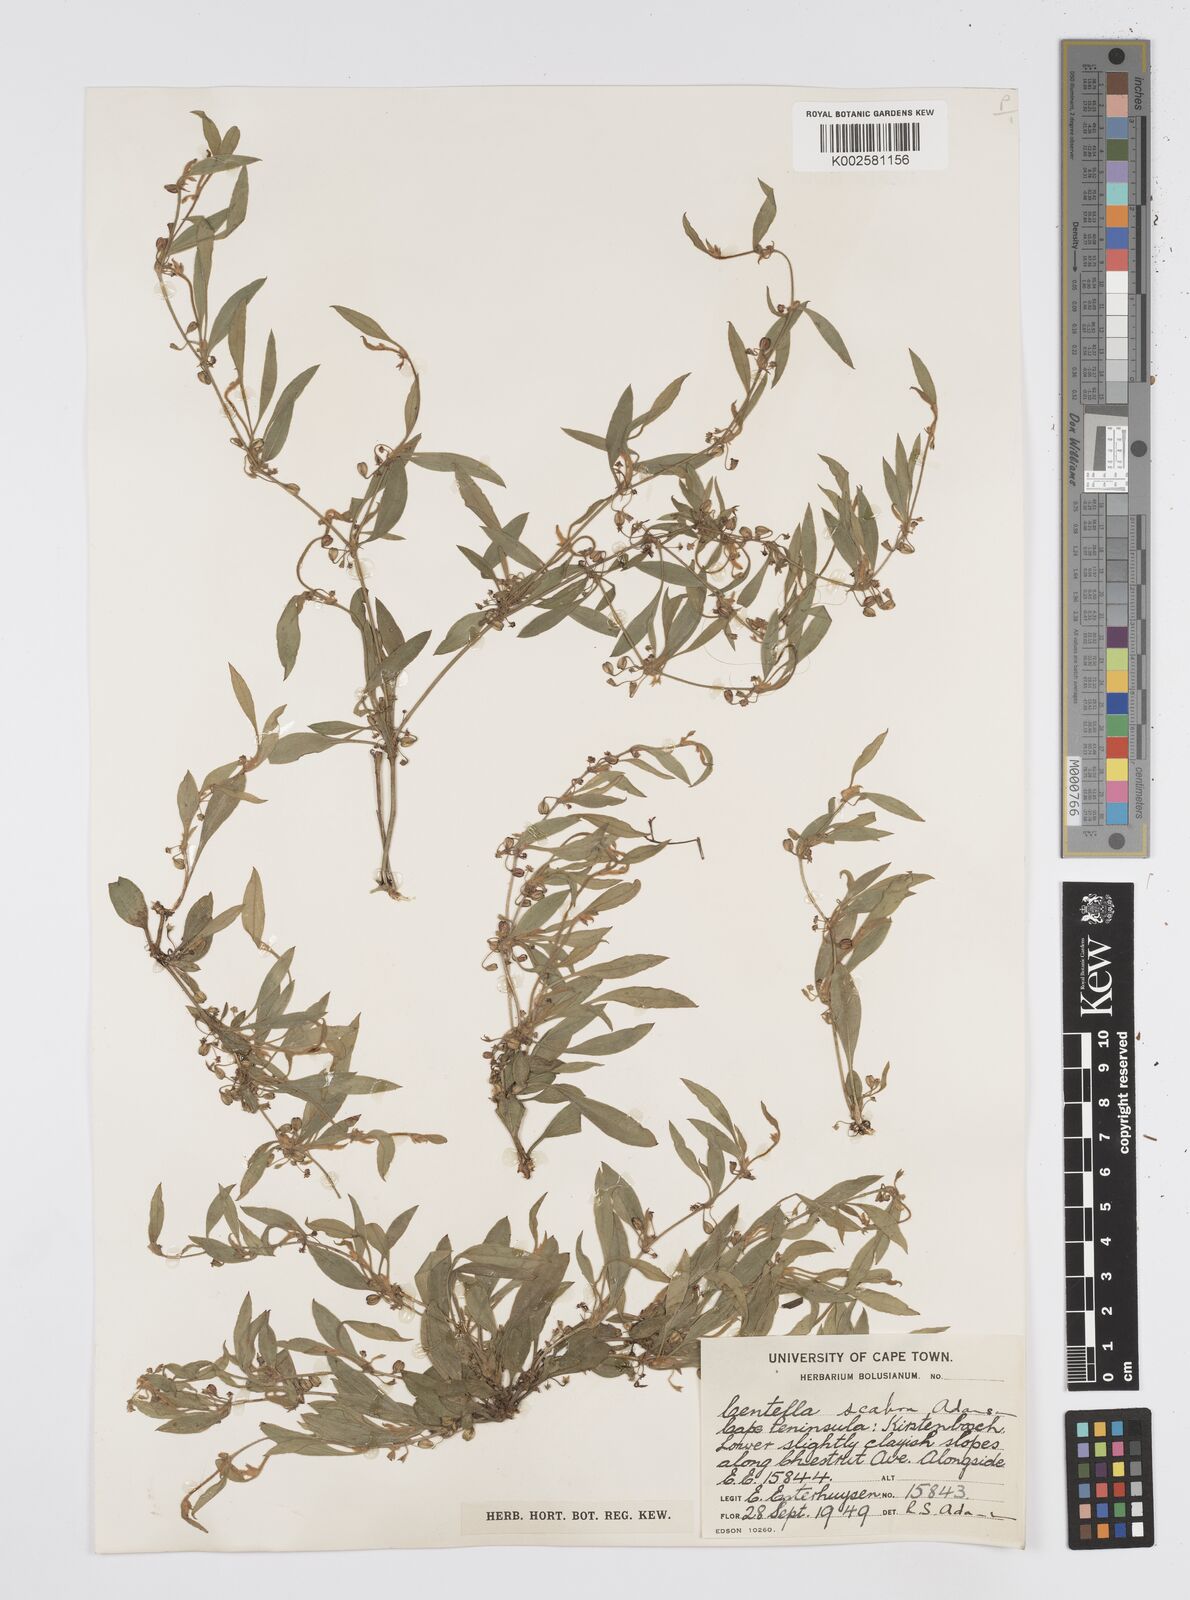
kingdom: Plantae
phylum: Tracheophyta
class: Magnoliopsida
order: Apiales
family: Apiaceae
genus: Centella
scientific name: Centella scabra
